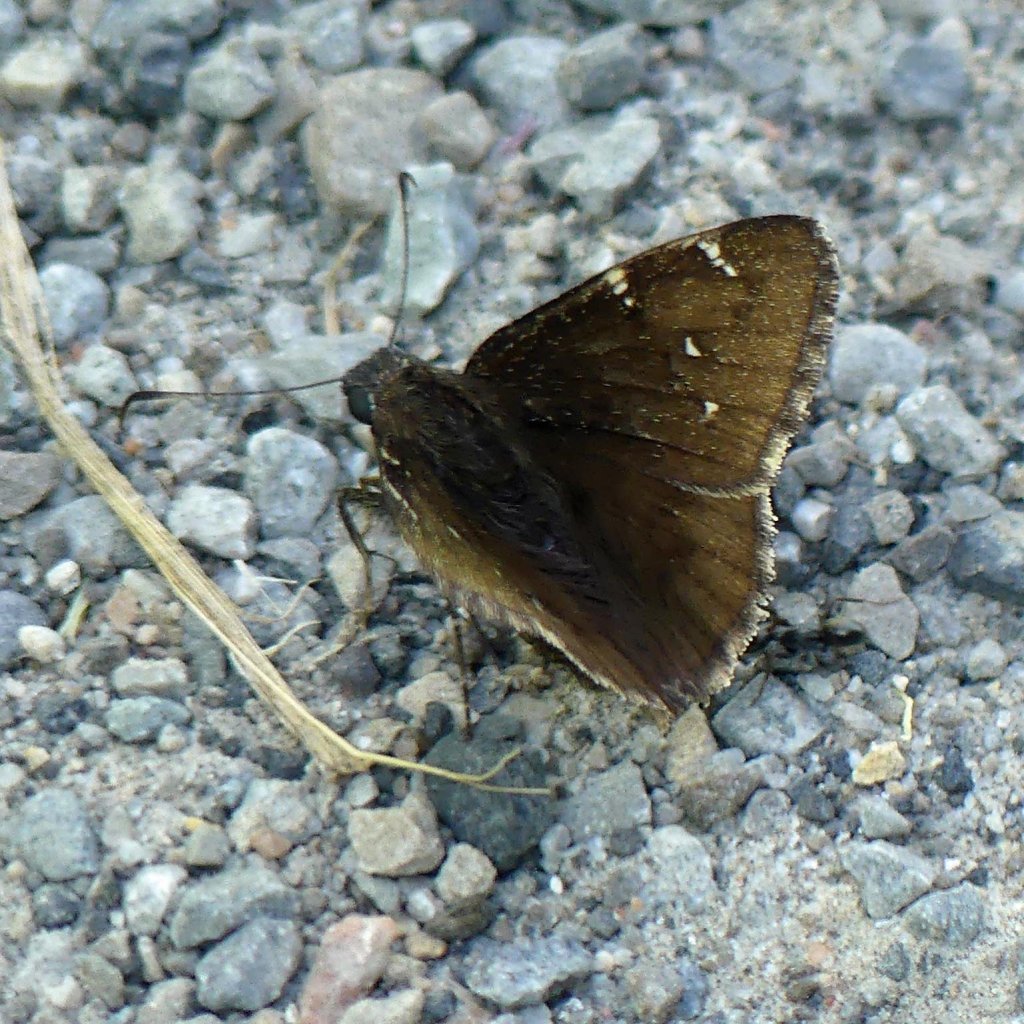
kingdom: Animalia
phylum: Arthropoda
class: Insecta
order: Lepidoptera
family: Hesperiidae
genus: Autochton
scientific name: Autochton
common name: Northern Cloudywing
